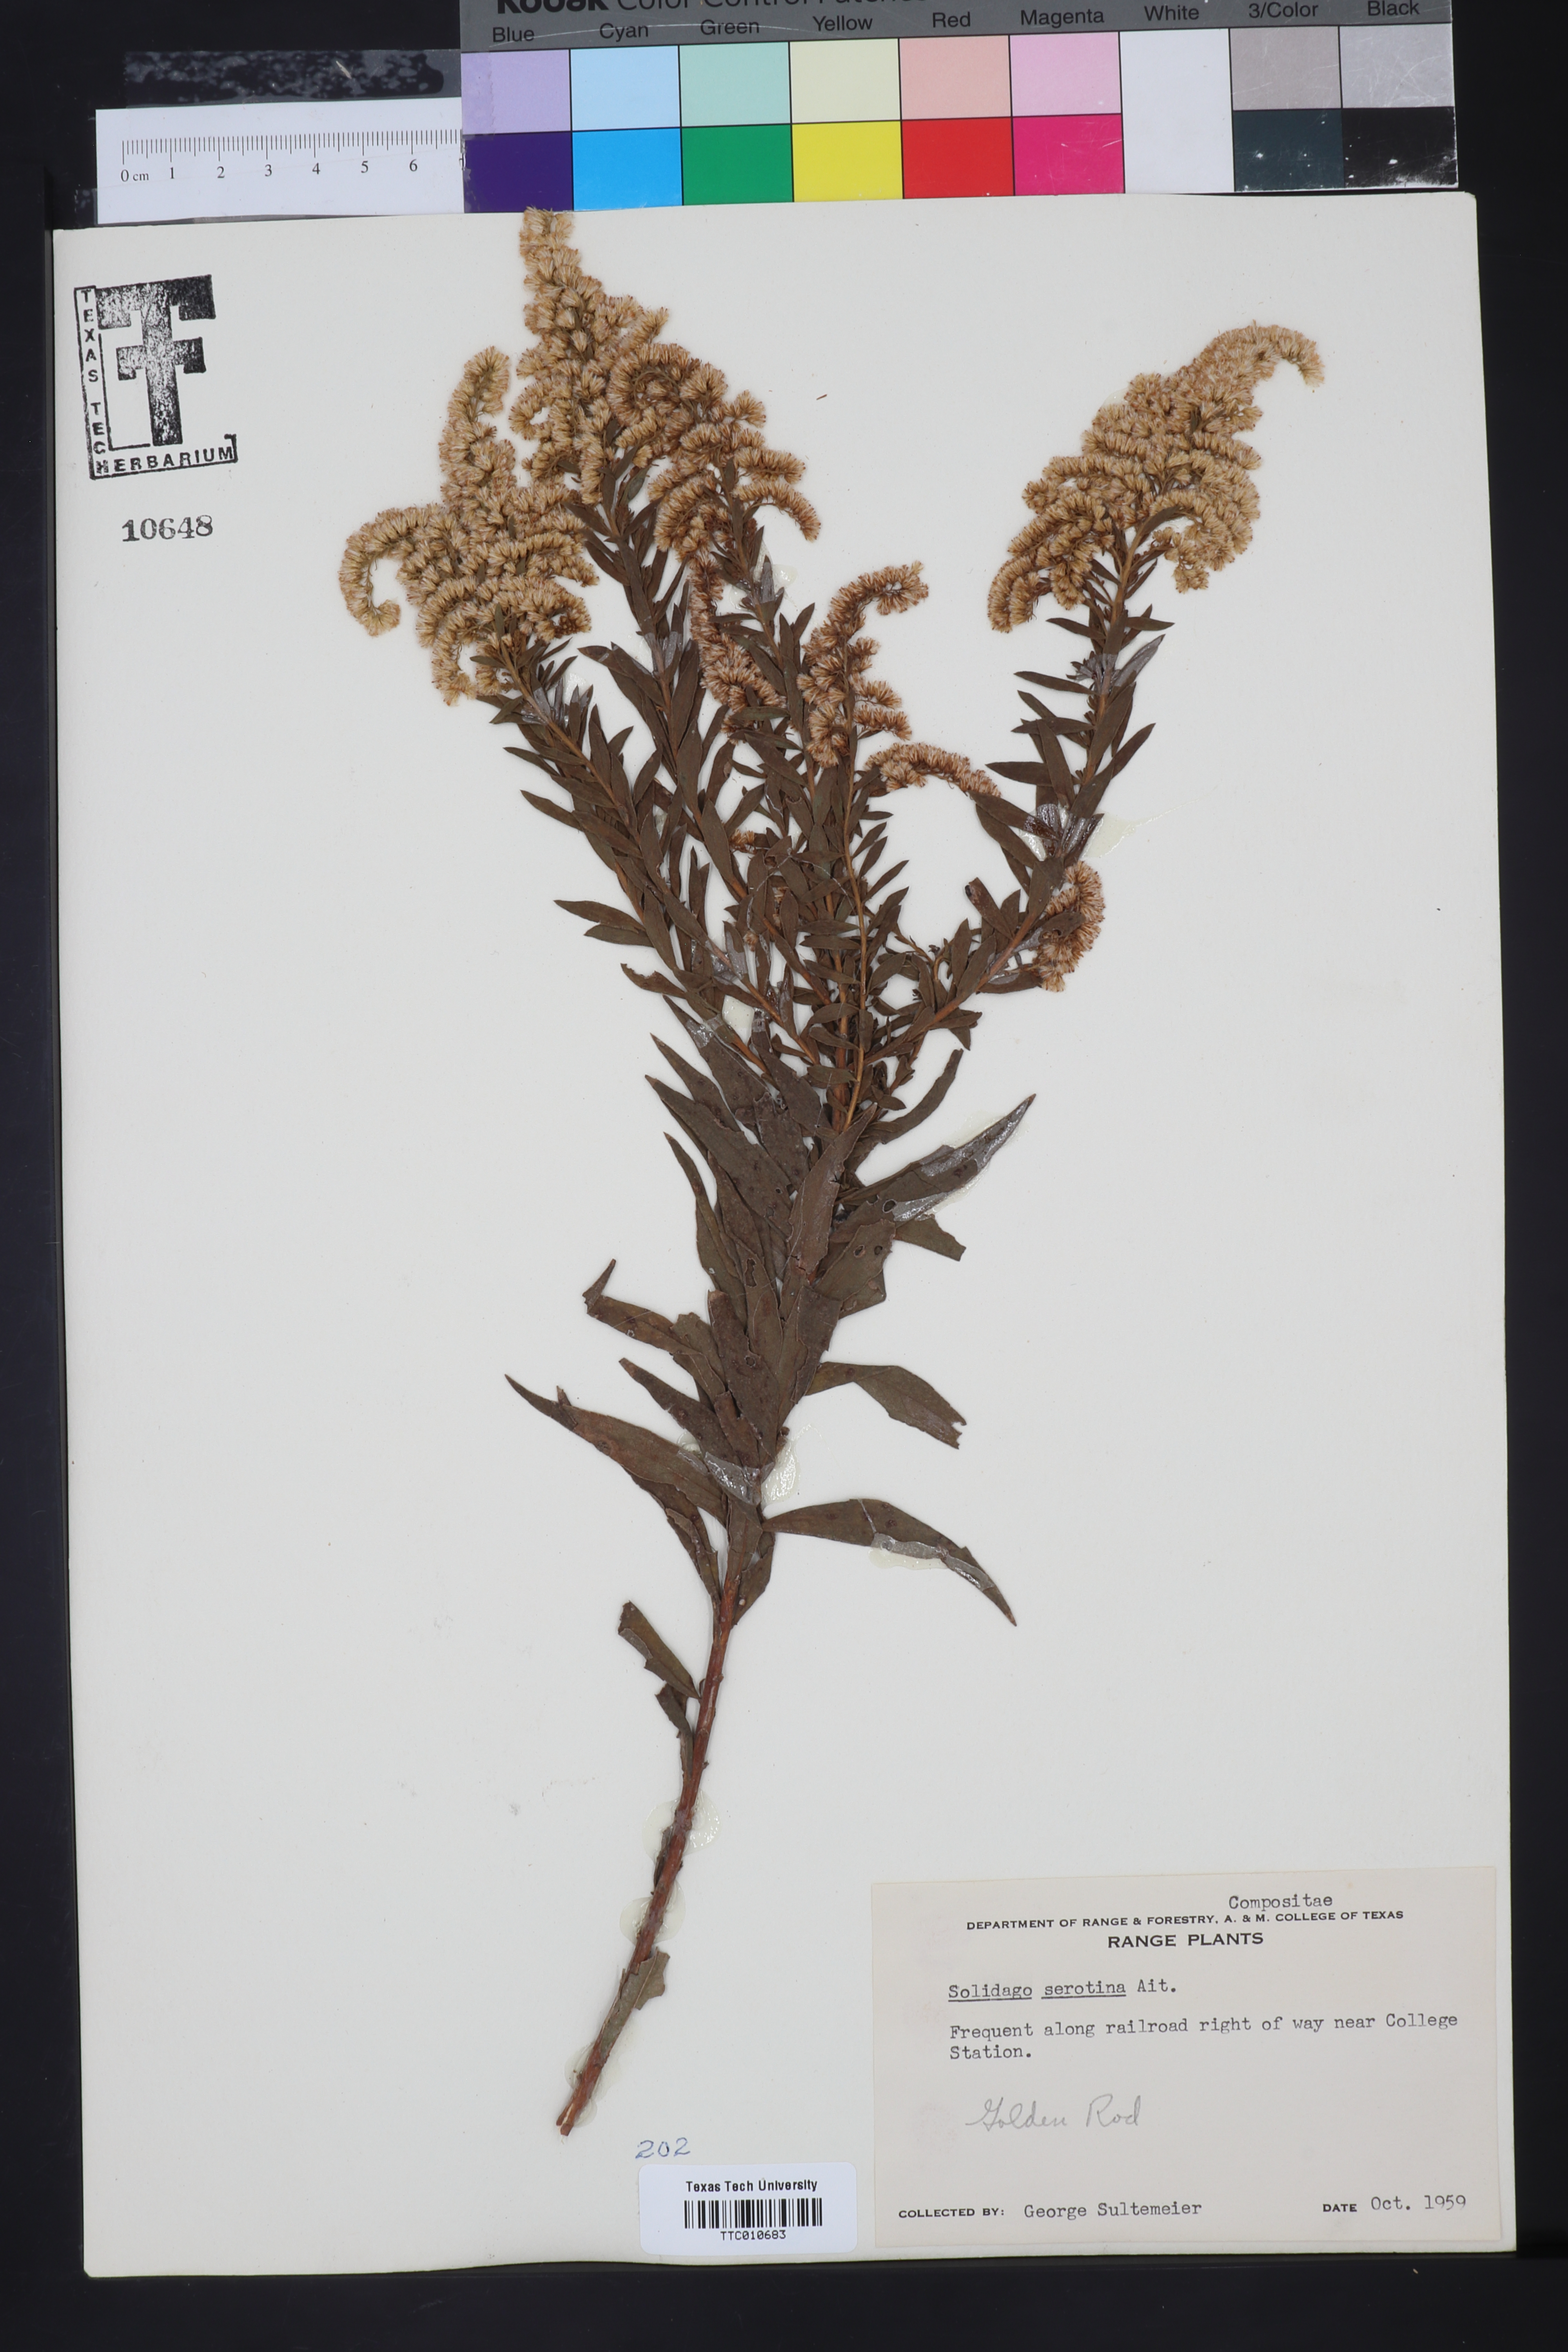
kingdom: Plantae
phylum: Tracheophyta
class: Magnoliopsida
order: Asterales
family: Asteraceae
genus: Solidago
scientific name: Solidago gigantea
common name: Giant goldenrod
